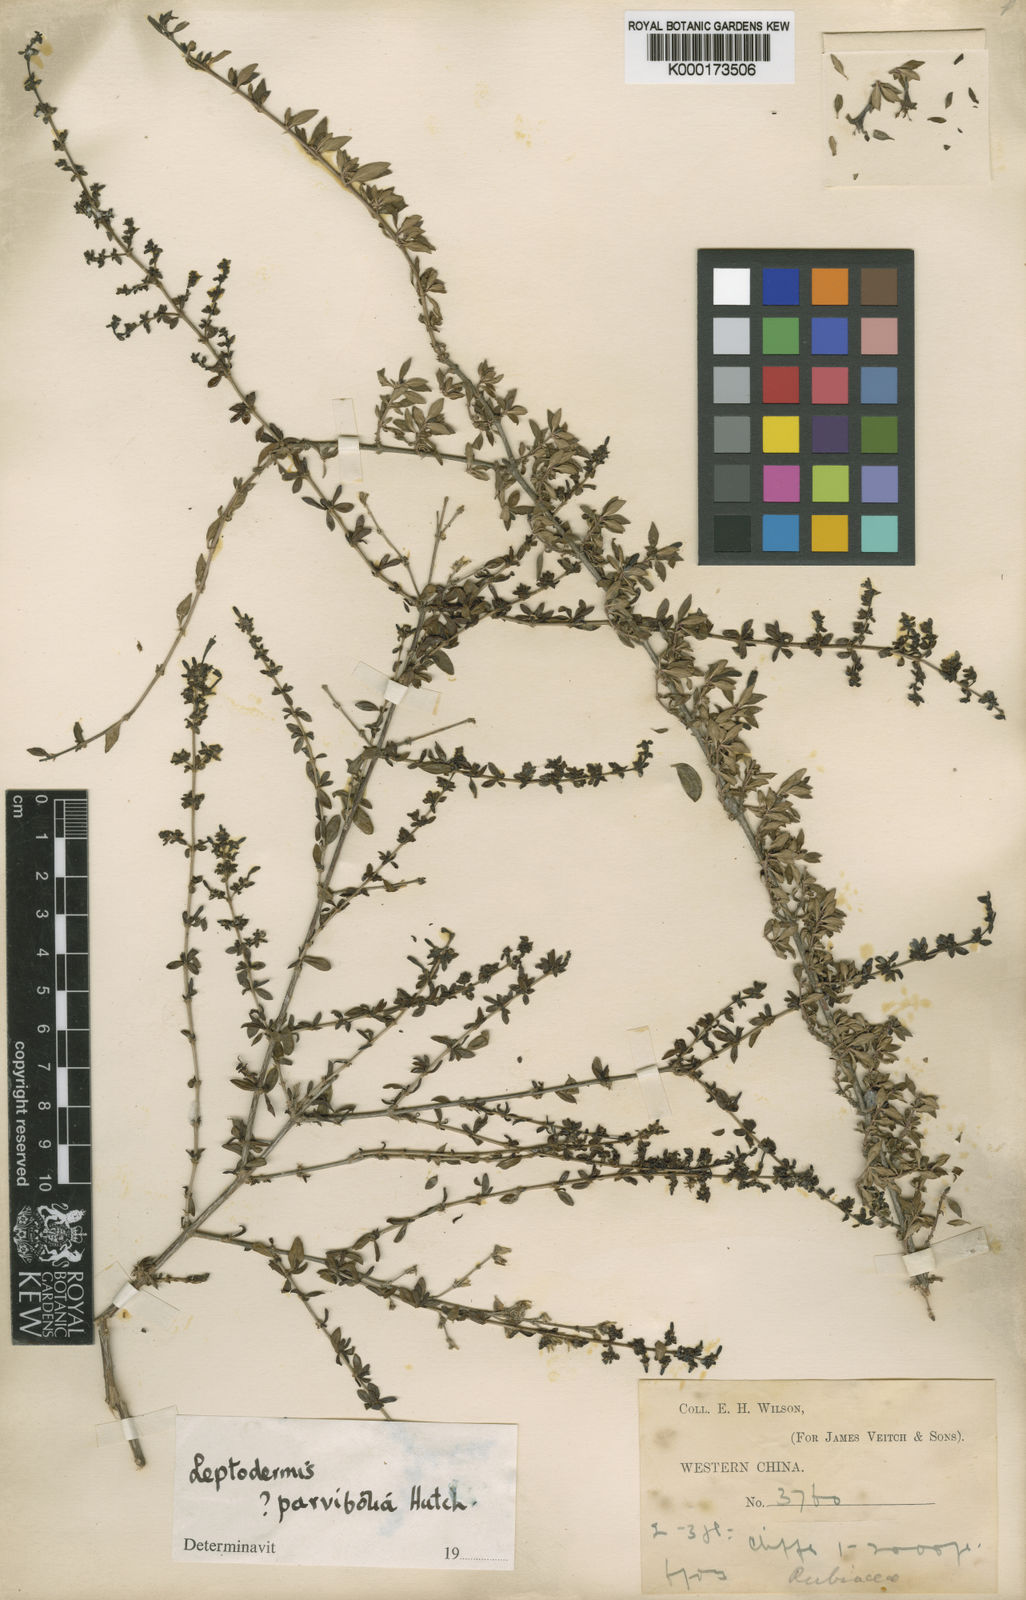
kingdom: Plantae
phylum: Tracheophyta
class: Magnoliopsida
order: Gentianales
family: Rubiaceae
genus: Leptodermis
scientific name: Leptodermis purdomii
